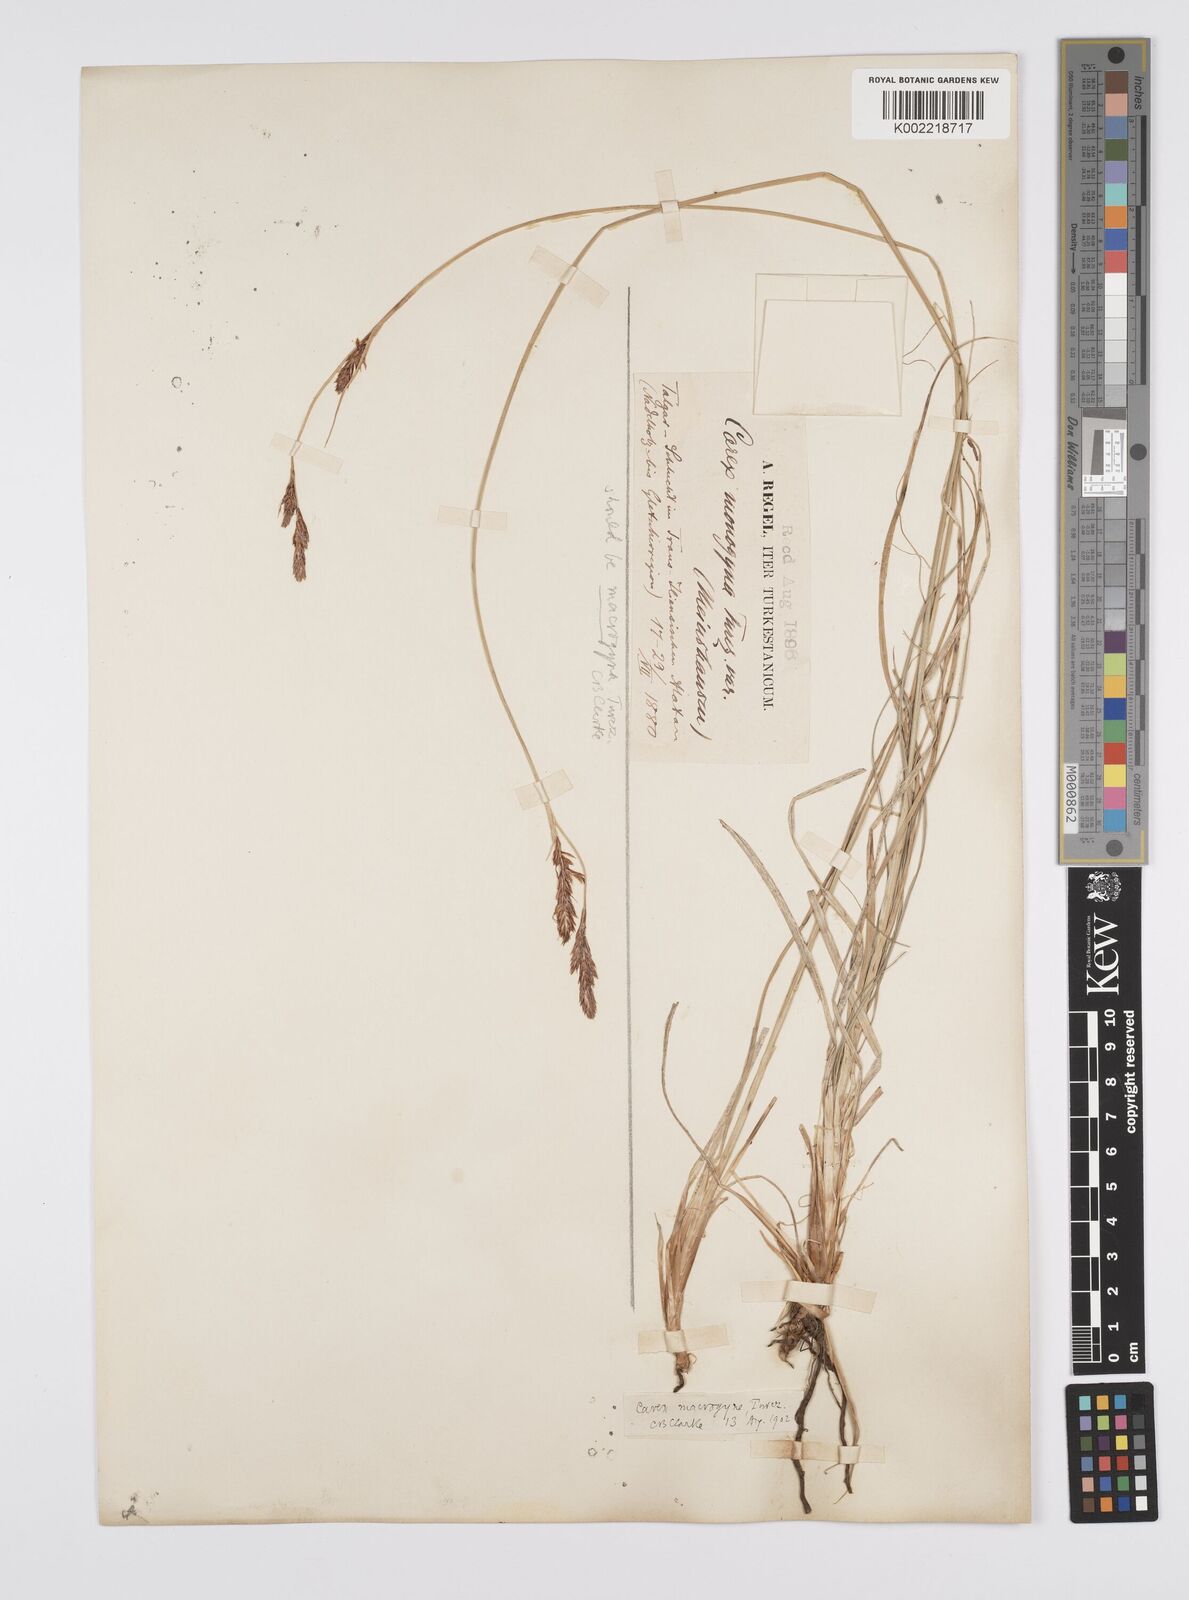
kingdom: Plantae
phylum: Tracheophyta
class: Liliopsida
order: Poales
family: Cyperaceae
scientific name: Cyperaceae
